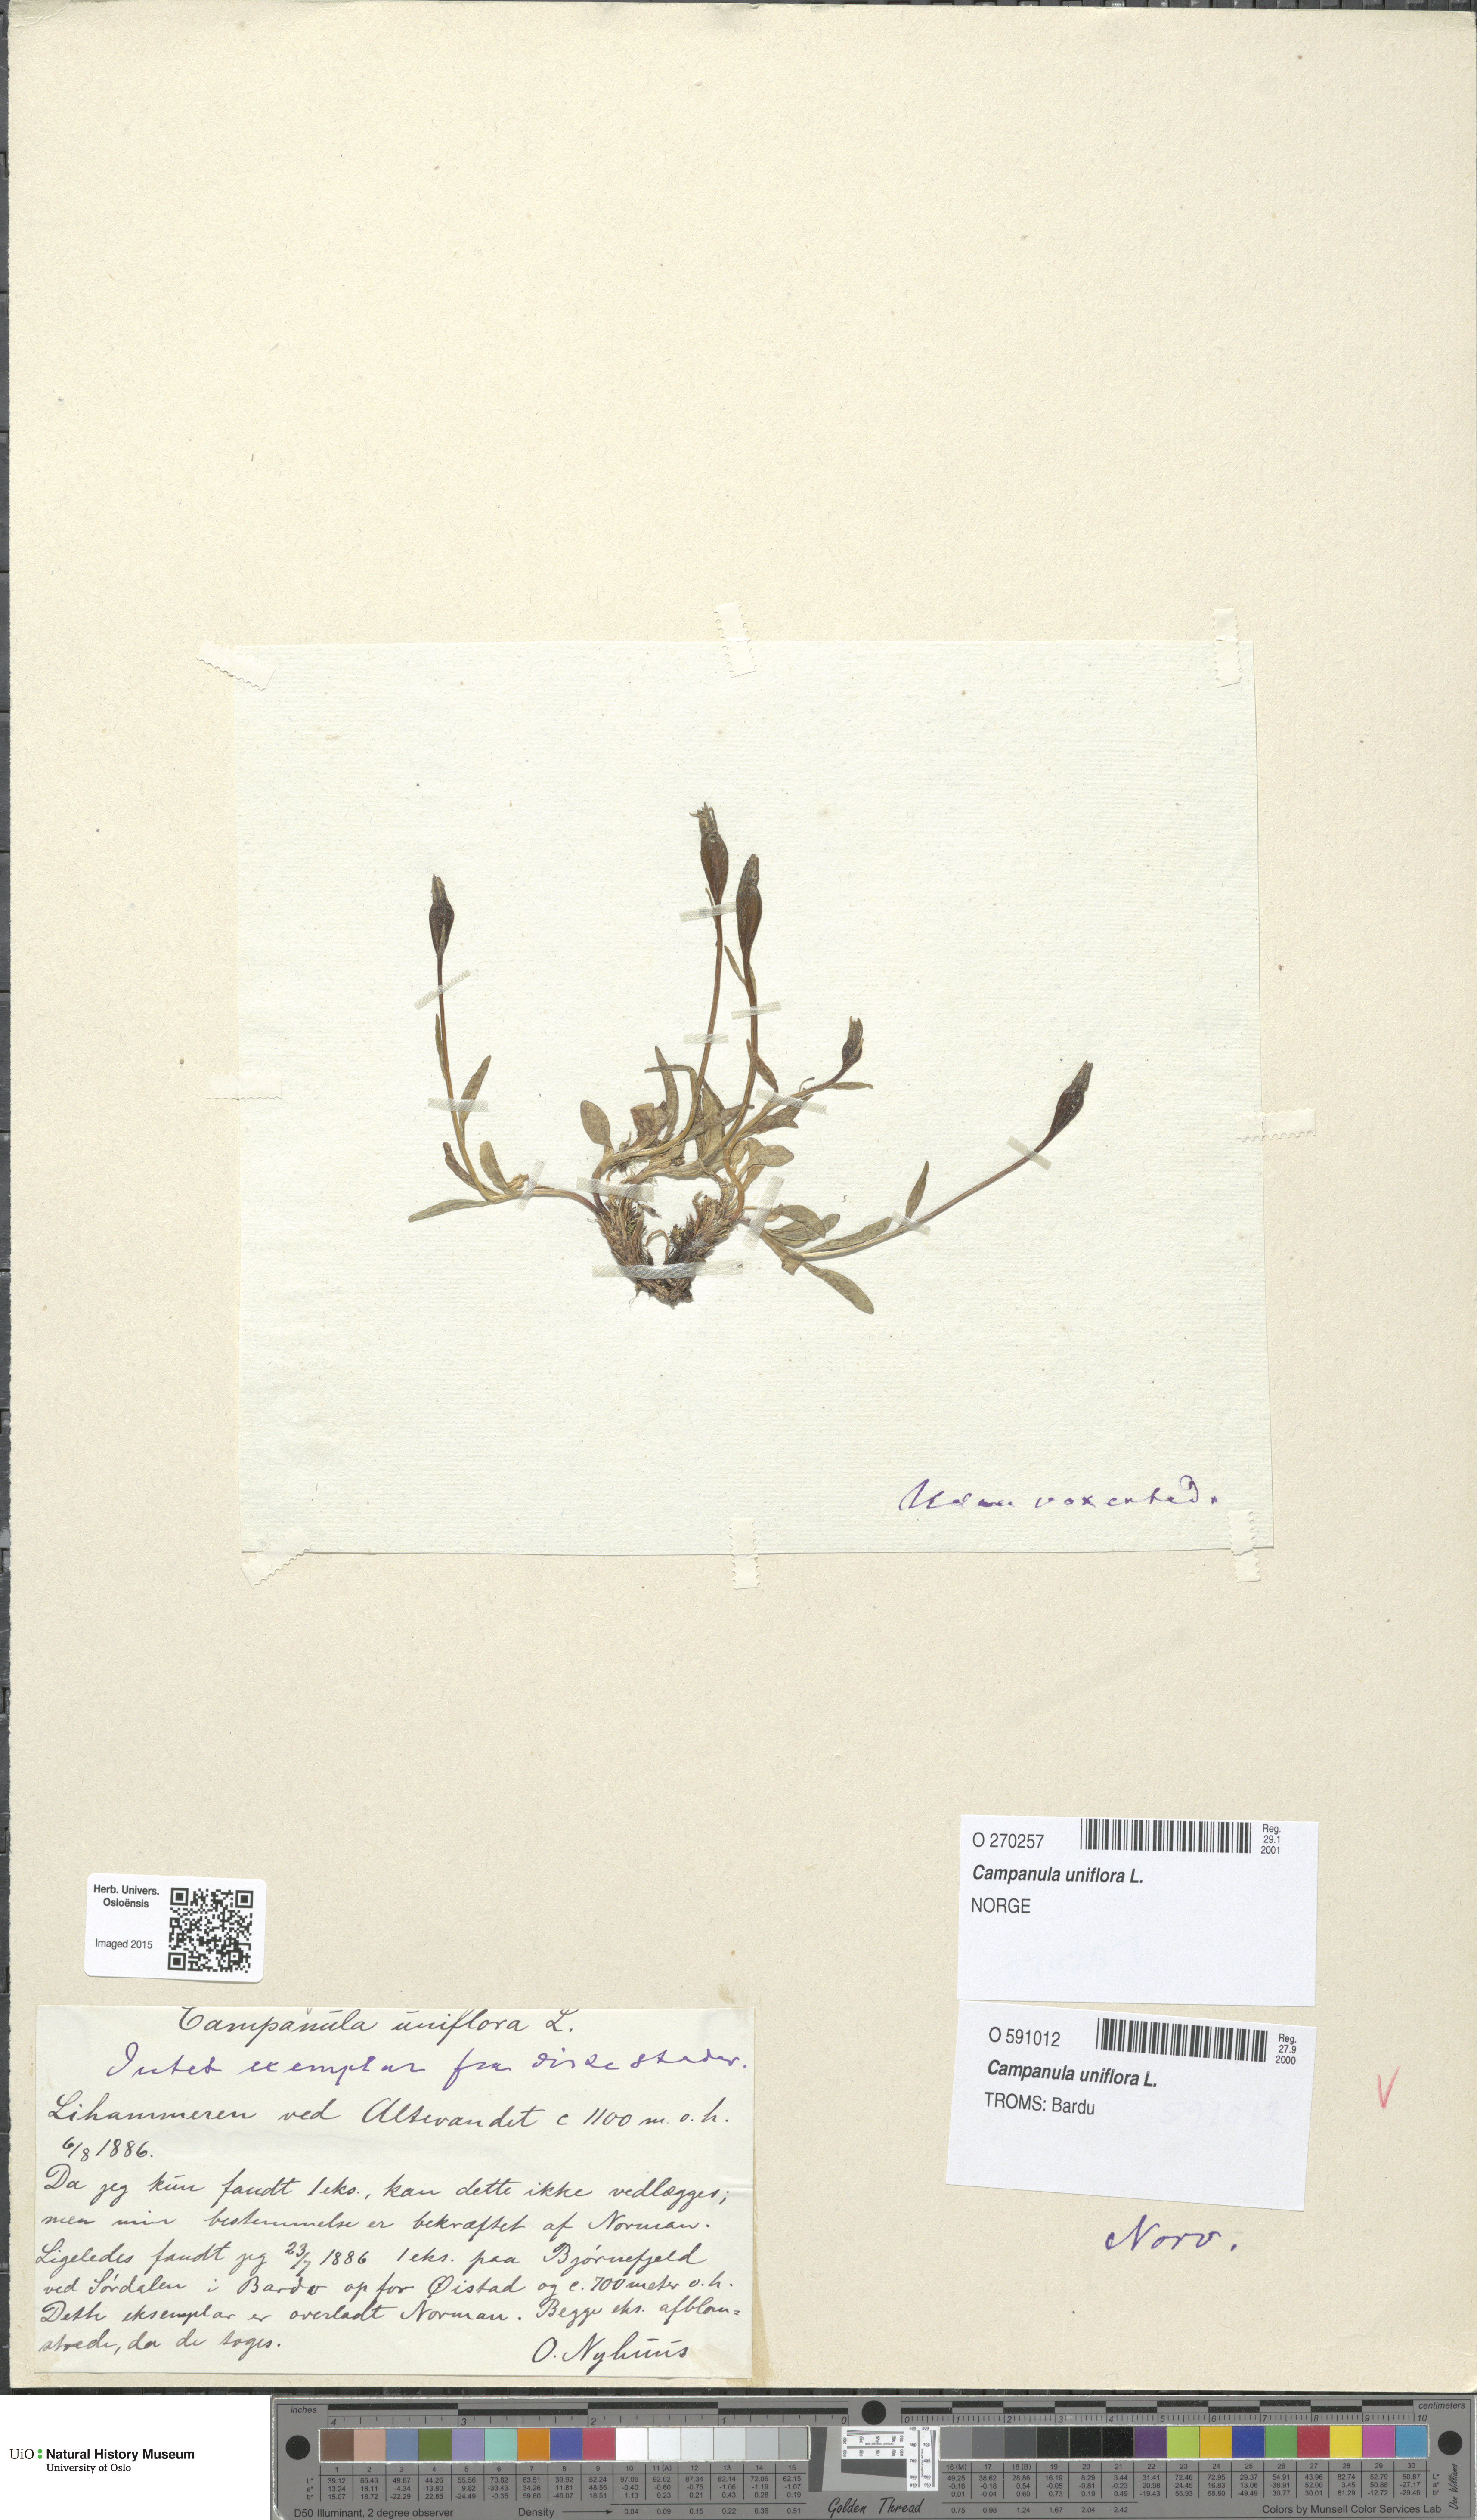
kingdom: Plantae
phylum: Tracheophyta
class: Magnoliopsida
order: Asterales
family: Campanulaceae
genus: Melanocalyx
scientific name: Melanocalyx uniflora
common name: Alpine harebell
